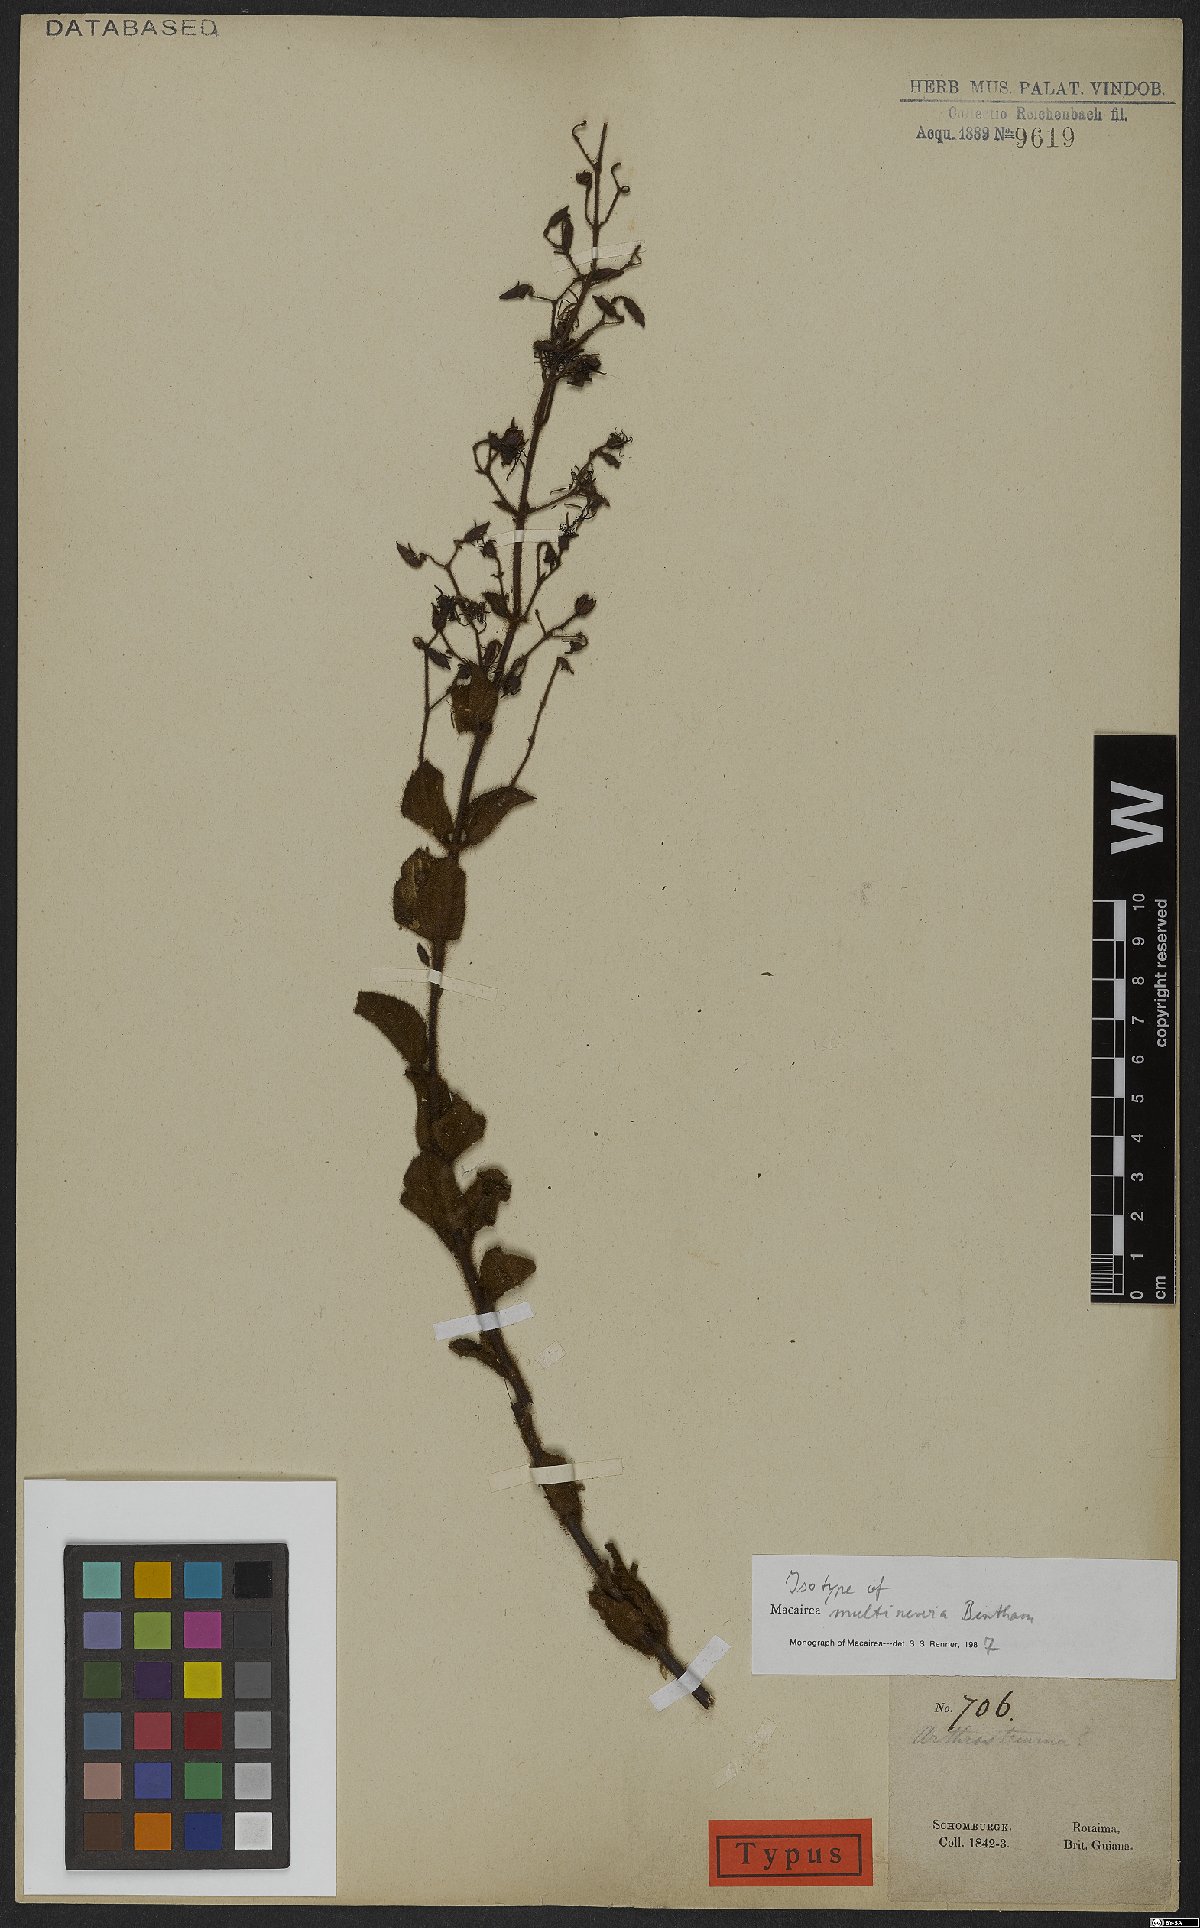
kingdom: Plantae
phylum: Tracheophyta
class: Magnoliopsida
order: Myrtales
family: Melastomataceae
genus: Macairea
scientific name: Macairea multinervia
